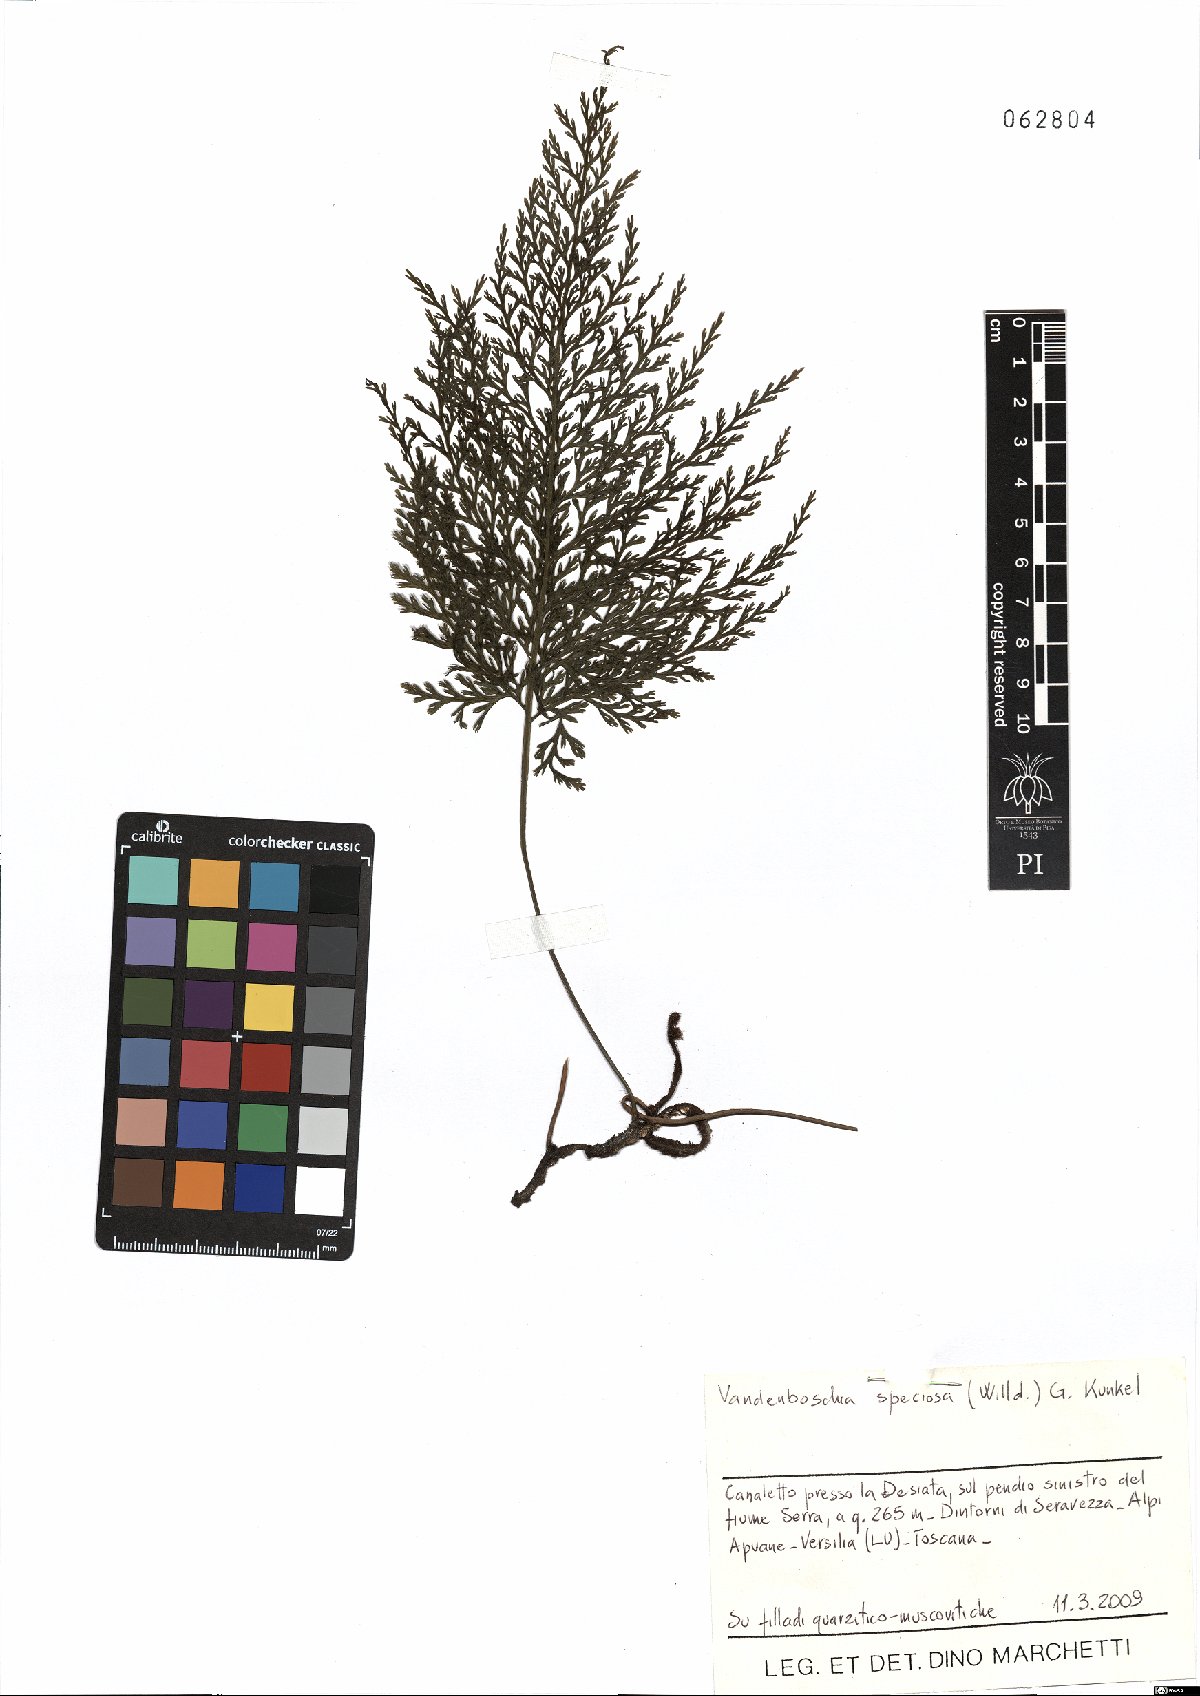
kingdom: Plantae
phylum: Tracheophyta
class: Polypodiopsida
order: Hymenophyllales
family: Hymenophyllaceae
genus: Vandenboschia
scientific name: Vandenboschia speciosa
